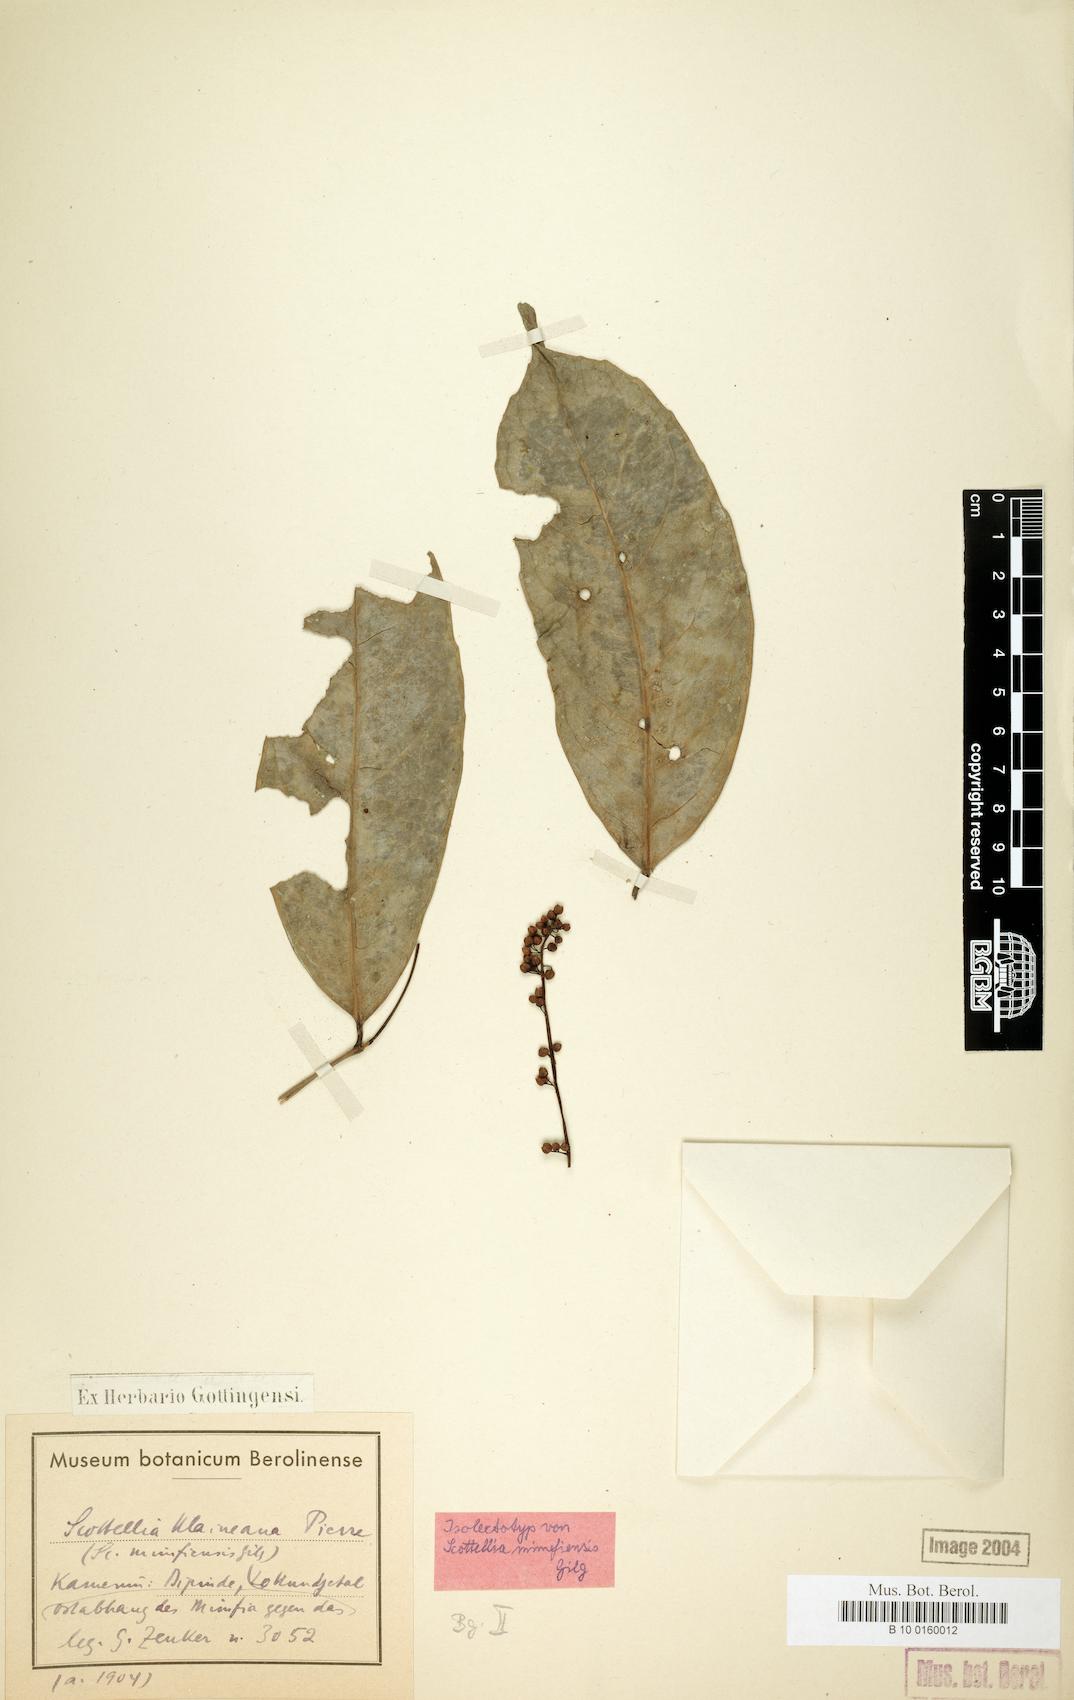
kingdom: Plantae
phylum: Tracheophyta
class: Magnoliopsida
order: Malpighiales
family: Achariaceae
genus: Scottellia
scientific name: Scottellia klaineana
